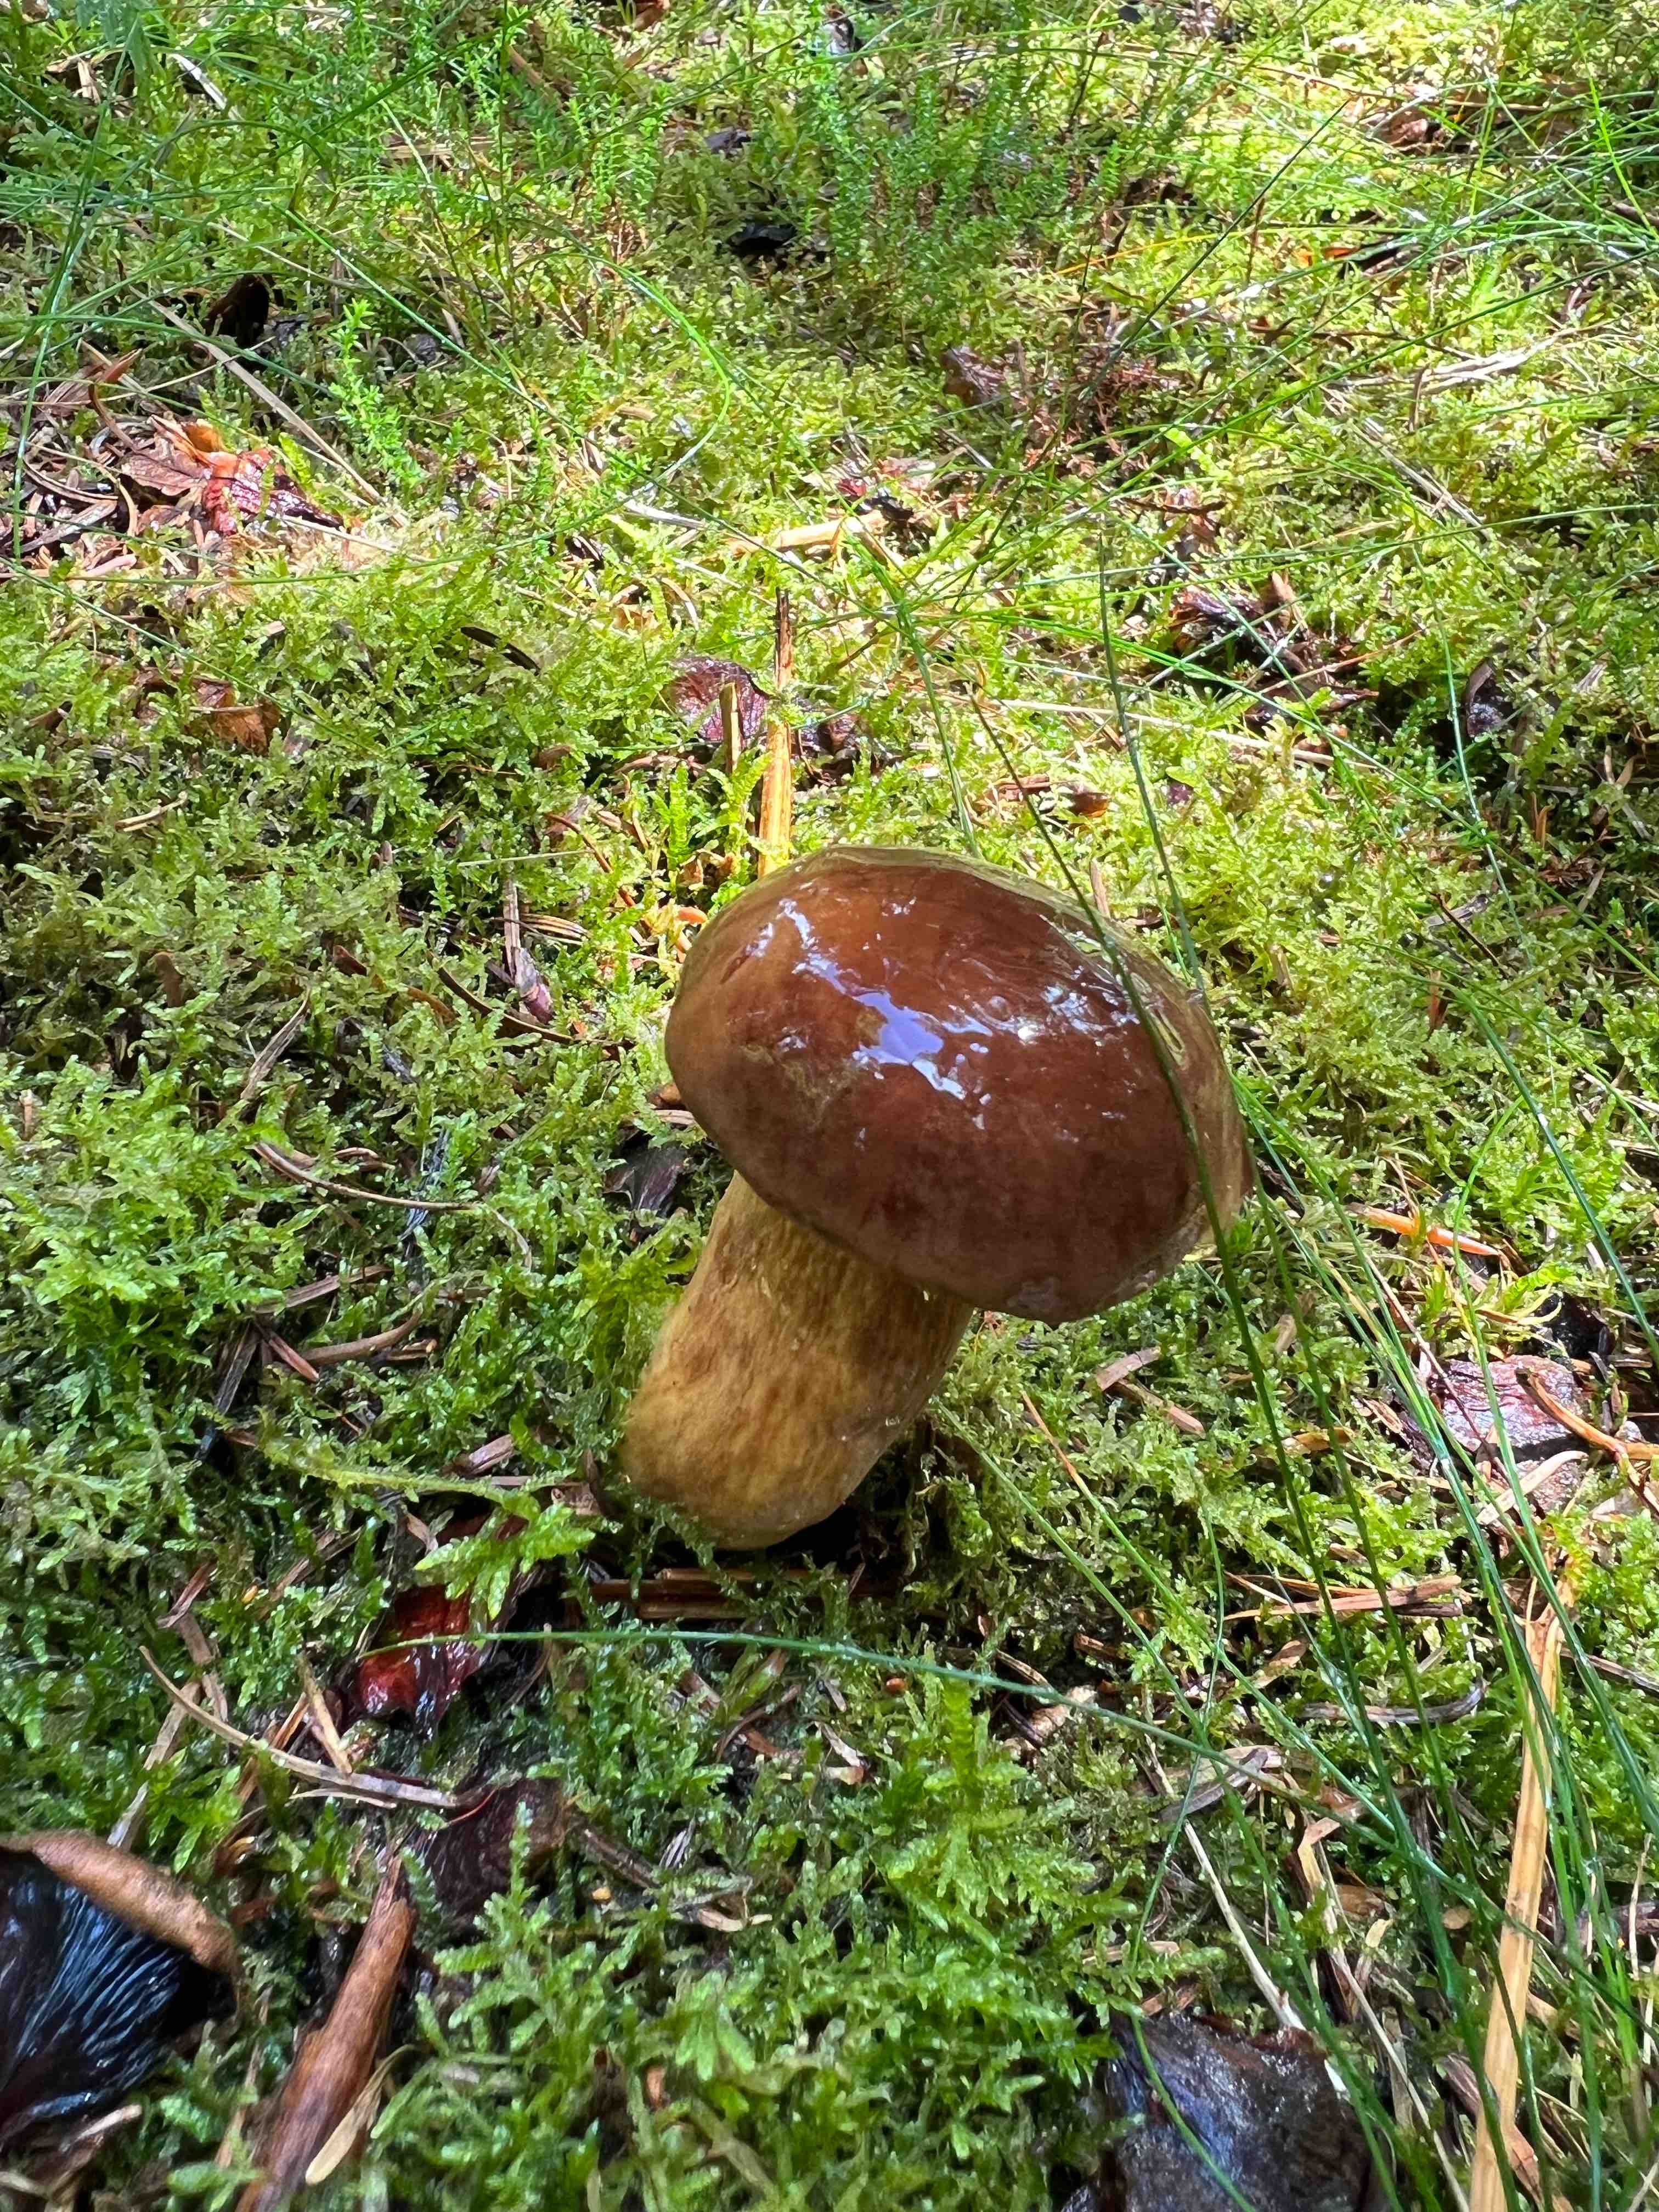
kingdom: Fungi
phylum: Basidiomycota
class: Agaricomycetes
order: Boletales
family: Boletaceae
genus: Imleria
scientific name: Imleria badia
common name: brunstokket rørhat
